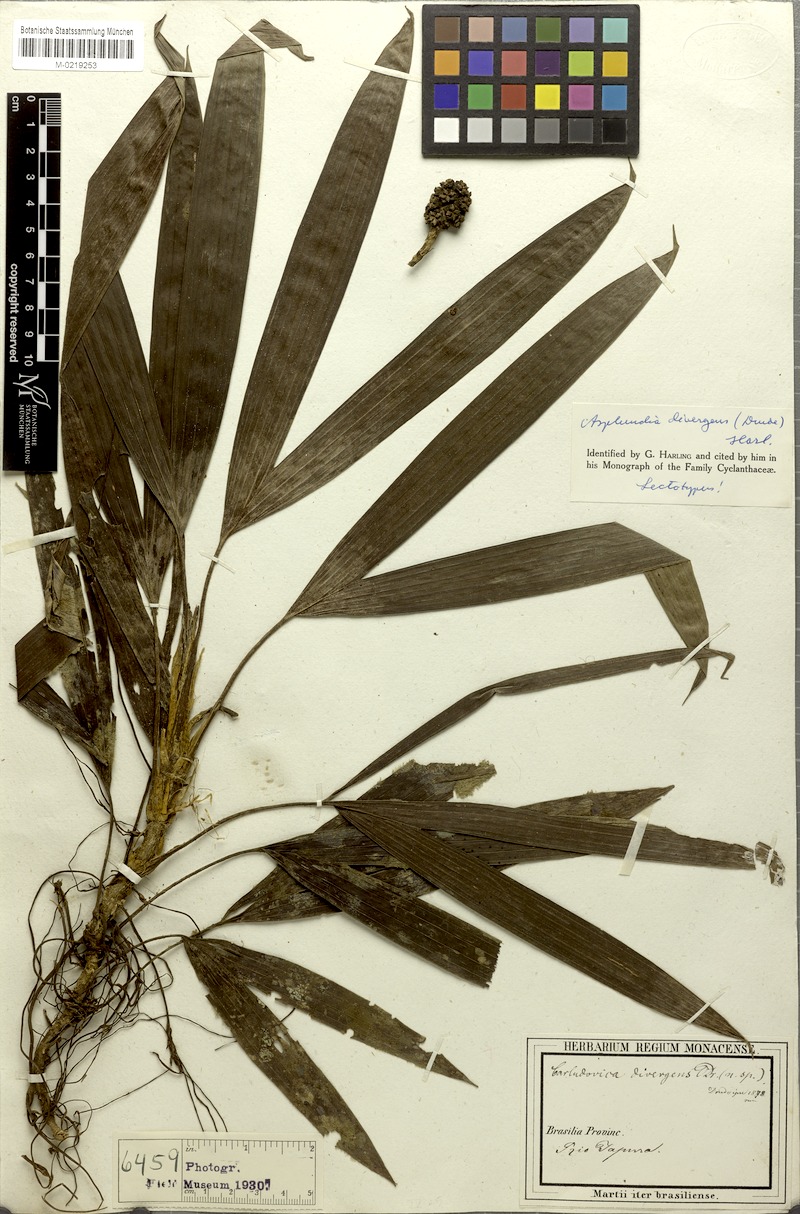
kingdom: Plantae
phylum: Tracheophyta
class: Liliopsida
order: Pandanales
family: Cyclanthaceae
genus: Asplundia
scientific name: Asplundia divergens
